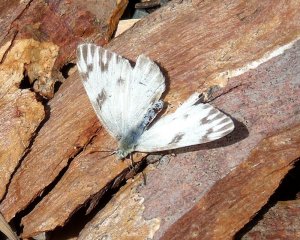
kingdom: Animalia
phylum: Arthropoda
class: Insecta
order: Lepidoptera
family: Pieridae
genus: Pontia
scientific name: Pontia protodice
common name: Checkered White
